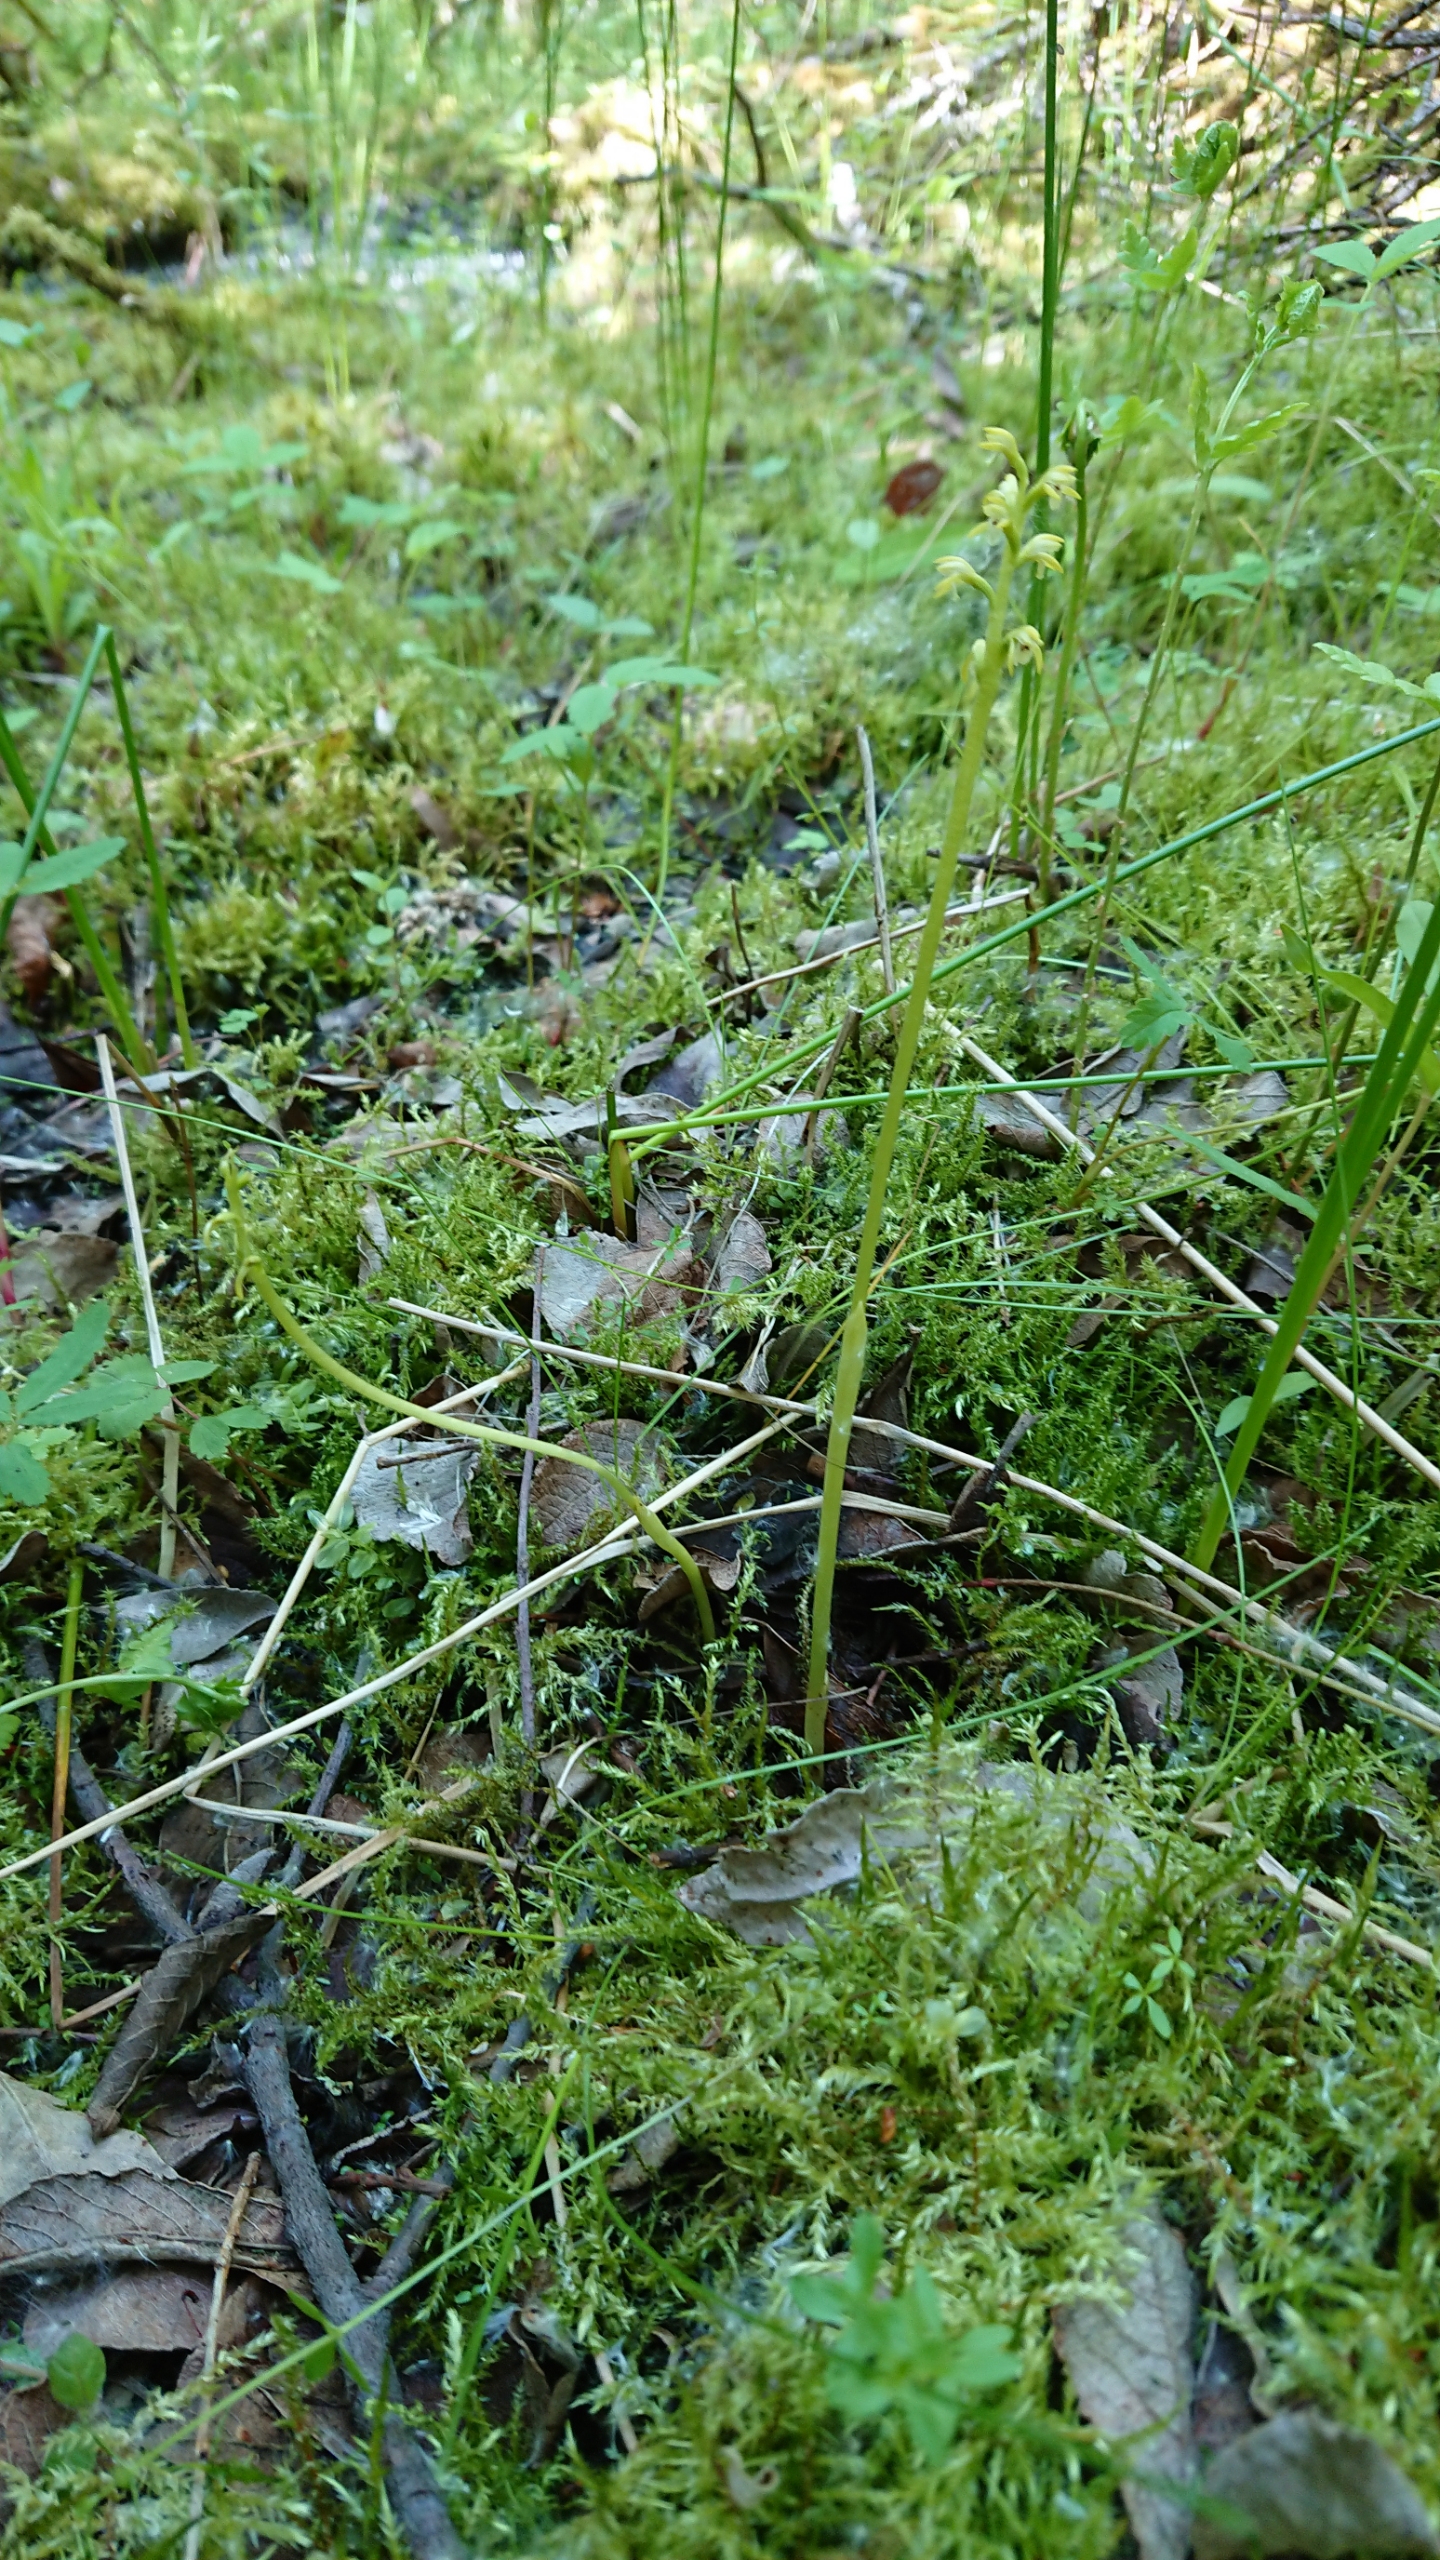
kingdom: Plantae
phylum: Tracheophyta
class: Liliopsida
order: Asparagales
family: Orchidaceae
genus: Corallorhiza
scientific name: Corallorhiza trifida
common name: Koralrod
